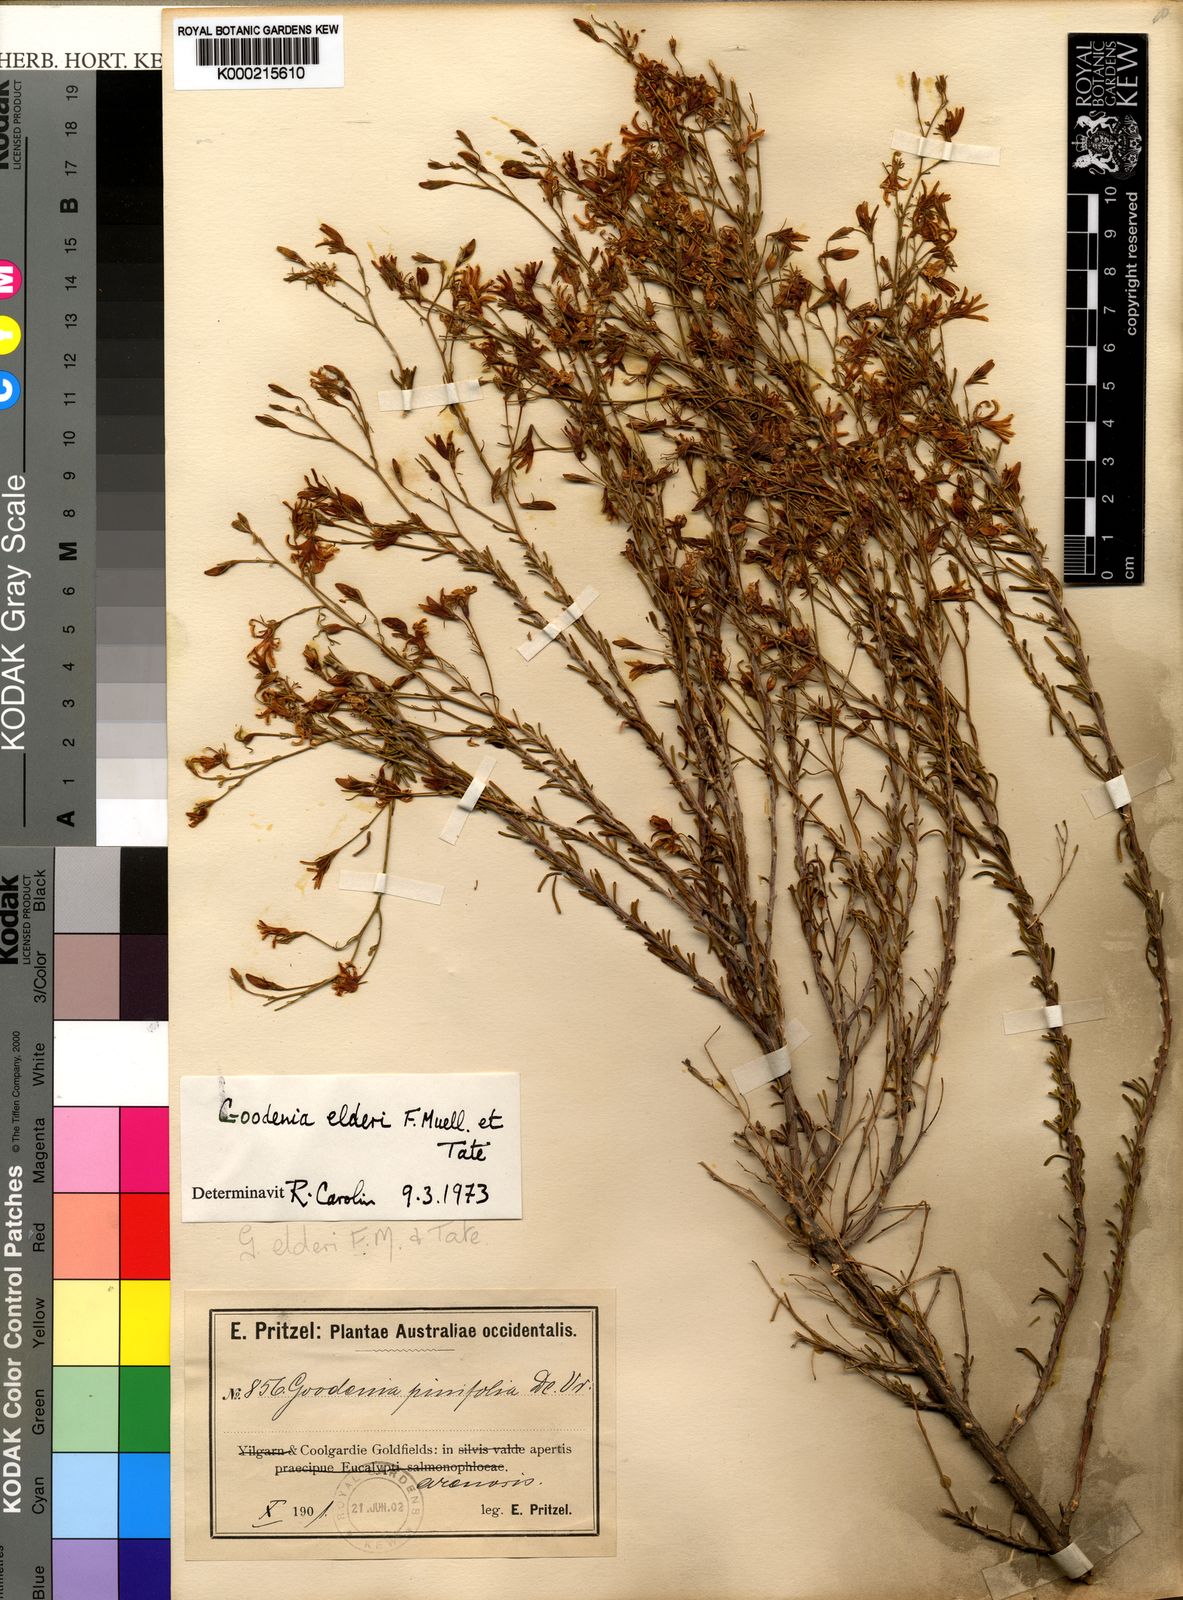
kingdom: Plantae
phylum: Tracheophyta
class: Magnoliopsida
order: Asterales
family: Goodeniaceae
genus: Goodenia
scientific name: Goodenia elderi
